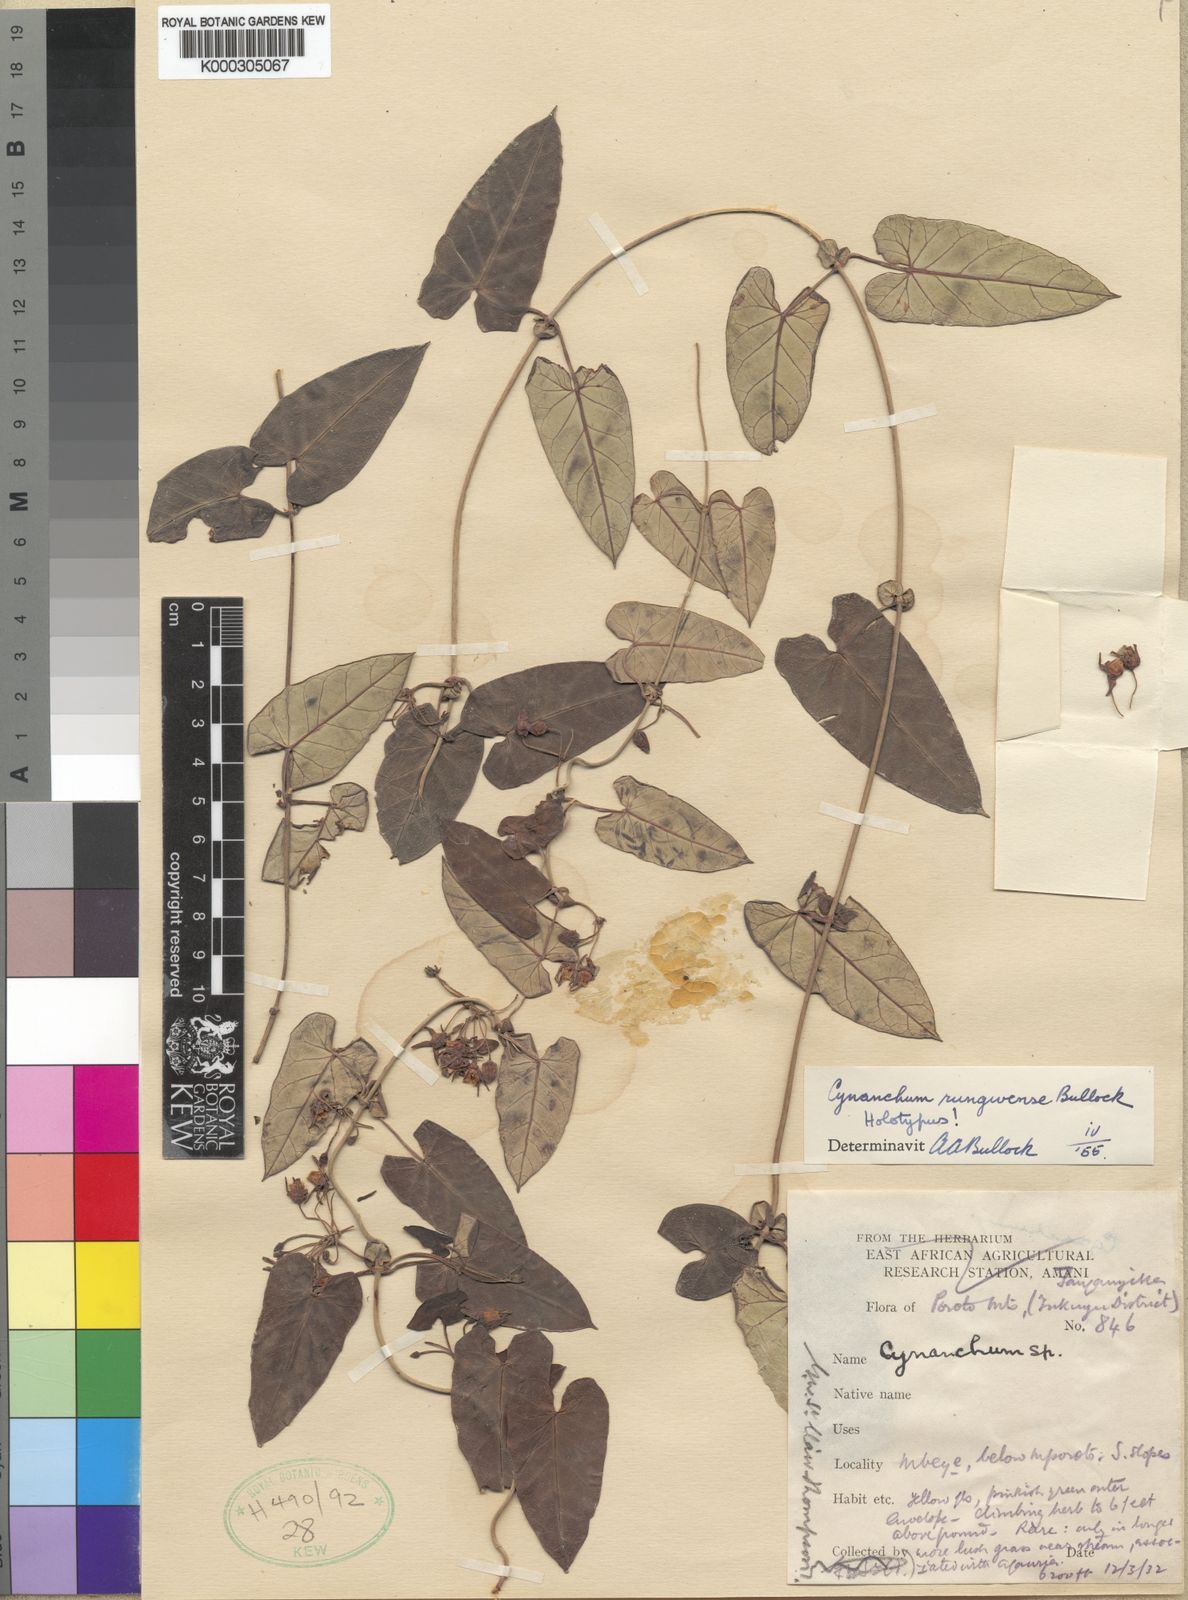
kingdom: Plantae
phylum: Tracheophyta
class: Magnoliopsida
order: Gentianales
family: Apocynaceae
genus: Cynanchum
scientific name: Cynanchum rungweense
